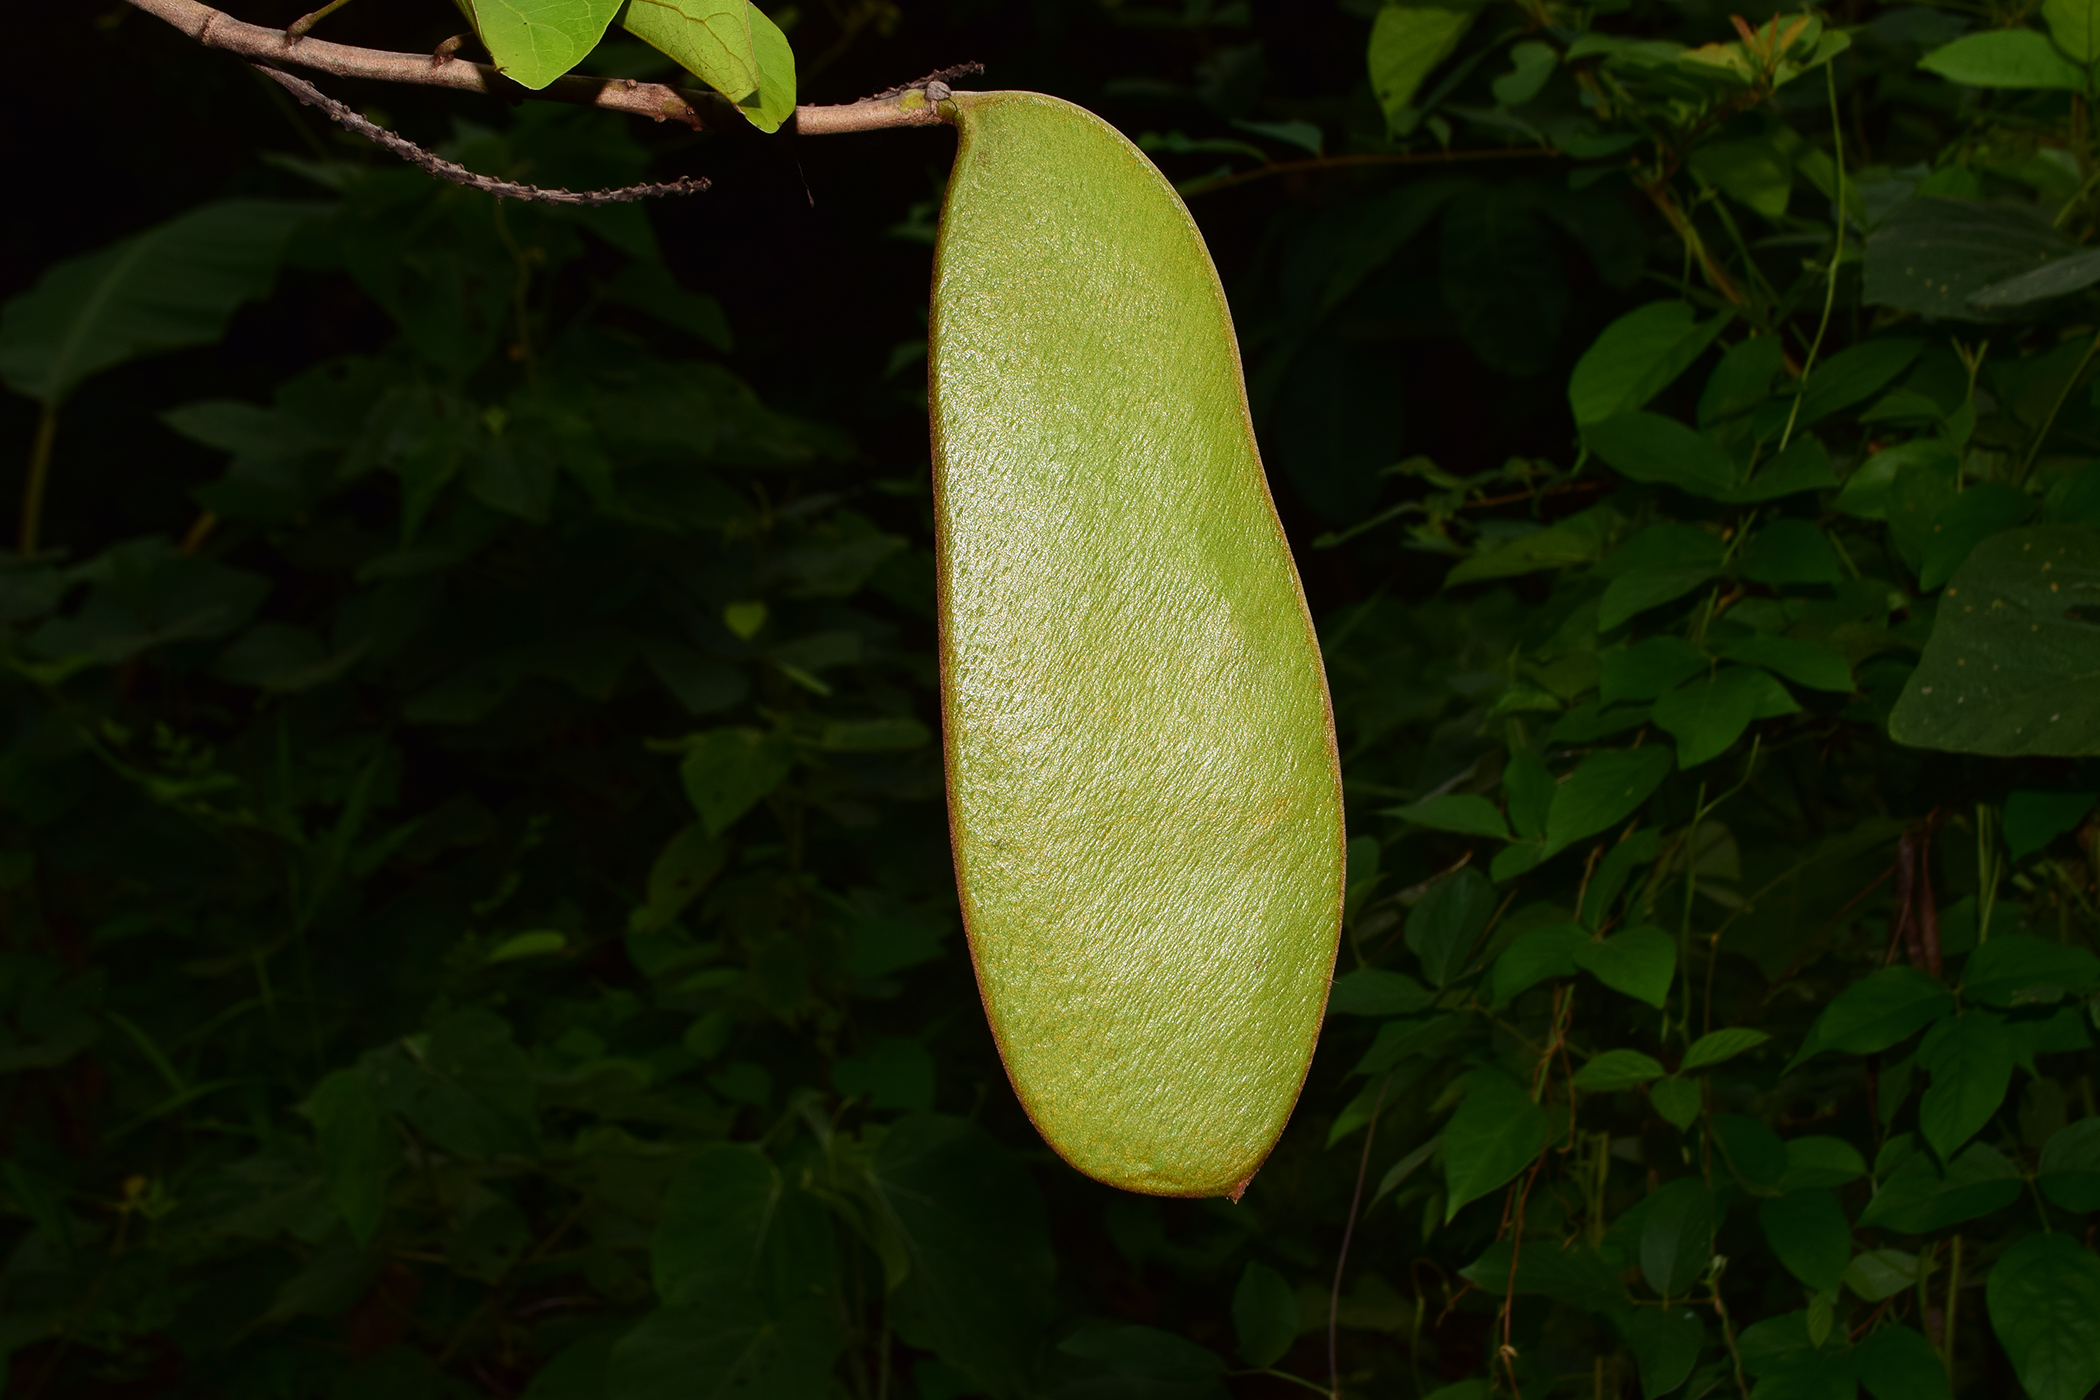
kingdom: Plantae
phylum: Tracheophyta
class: Magnoliopsida
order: Fabales
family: Fabaceae
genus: Bauhinia
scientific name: Bauhinia
